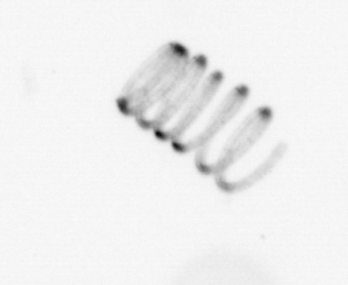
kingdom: Chromista
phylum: Ochrophyta
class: Bacillariophyceae
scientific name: Bacillariophyceae
